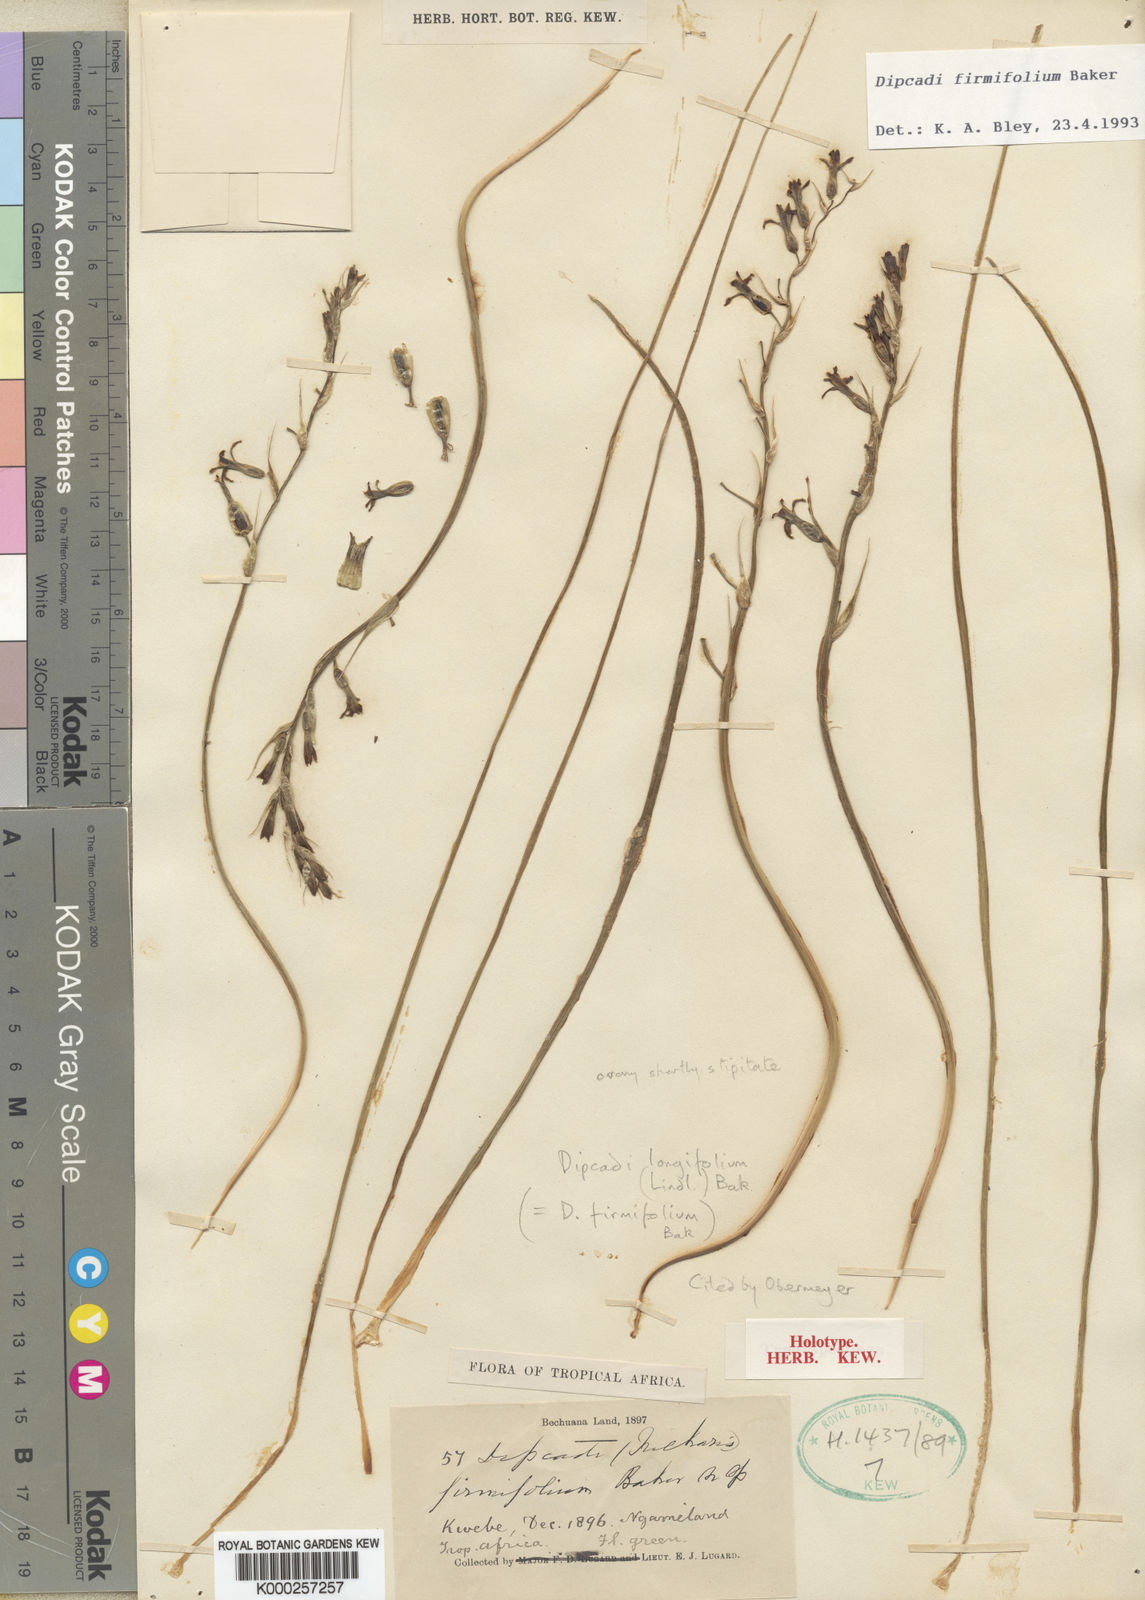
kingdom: Plantae
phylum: Tracheophyta
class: Liliopsida
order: Asparagales
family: Asparagaceae
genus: Dipcadi
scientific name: Dipcadi longifolium
